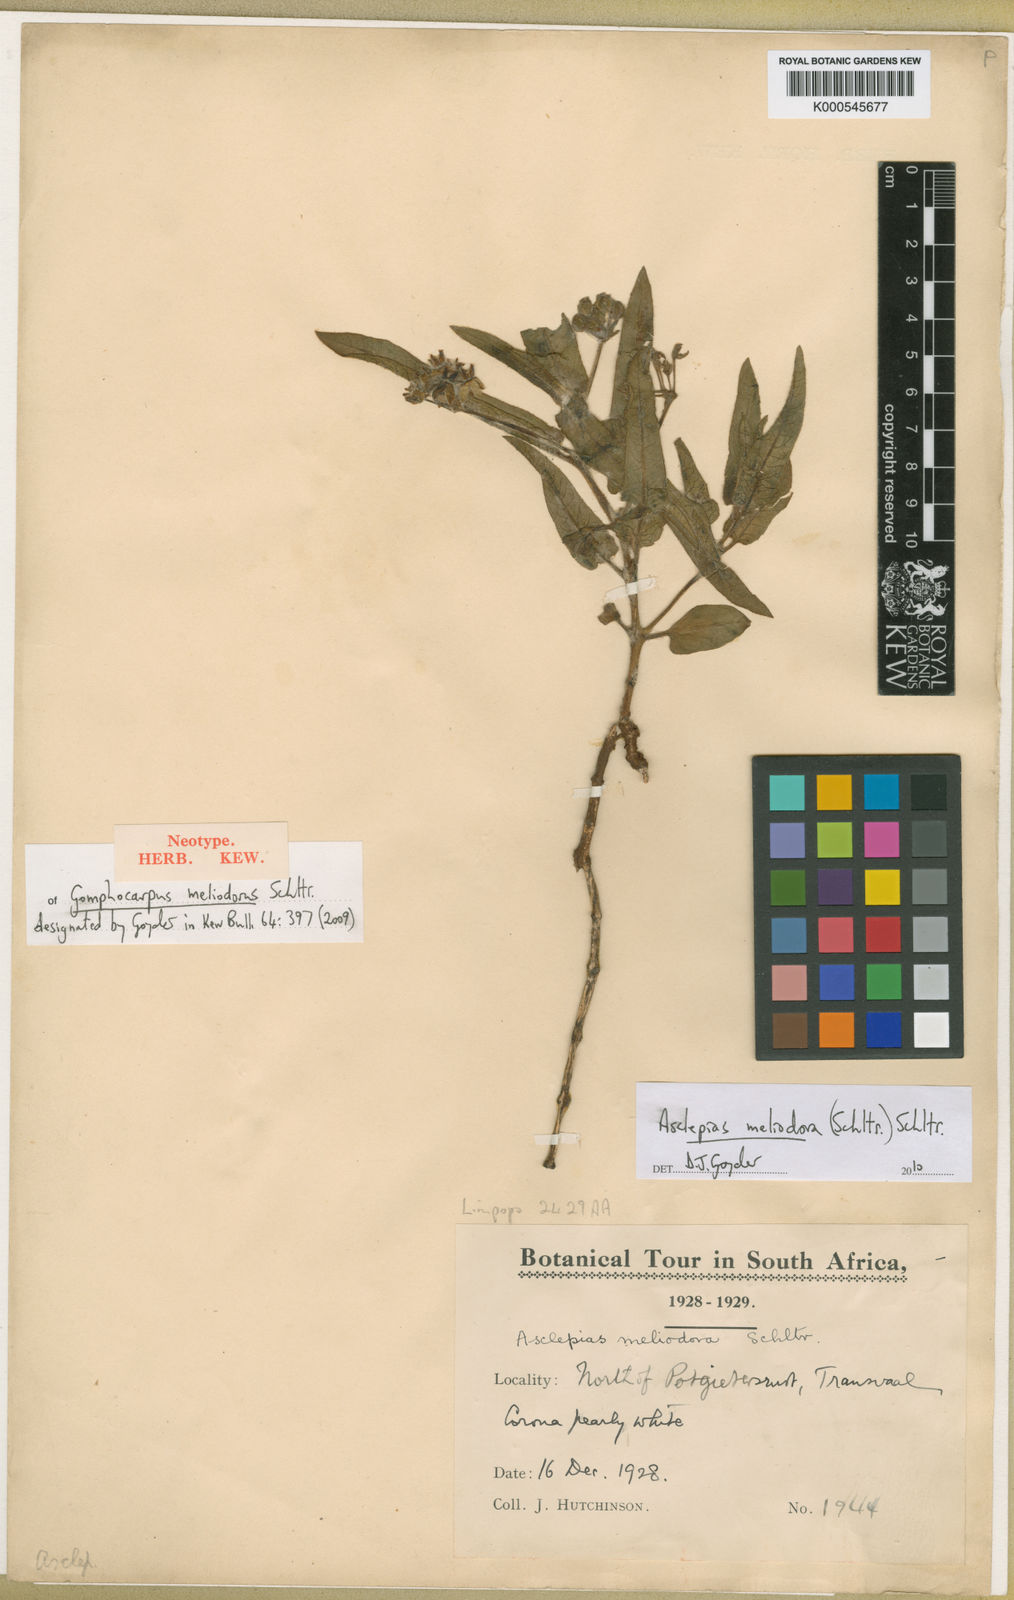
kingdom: Plantae
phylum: Tracheophyta
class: Magnoliopsida
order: Gentianales
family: Apocynaceae
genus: Asclepias
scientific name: Asclepias meliodora
